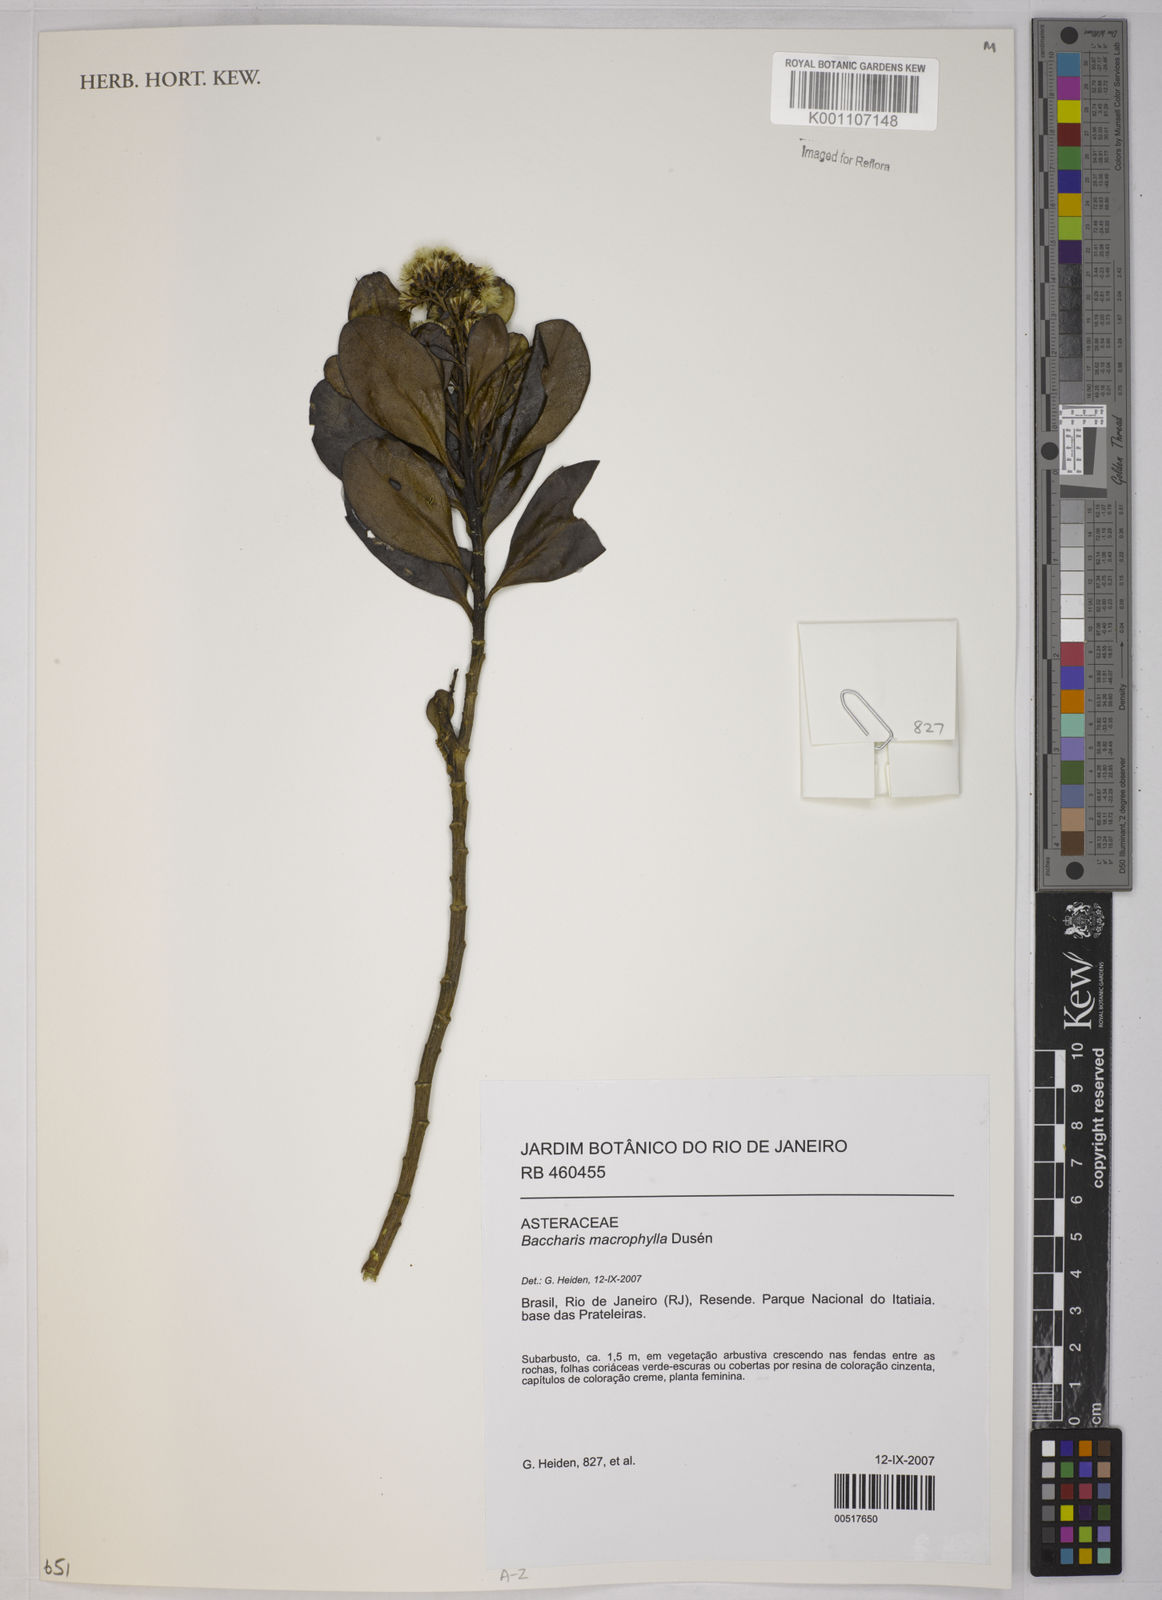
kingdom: Plantae
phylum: Tracheophyta
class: Magnoliopsida
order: Asterales
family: Asteraceae
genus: Baccharis
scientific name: Baccharis
